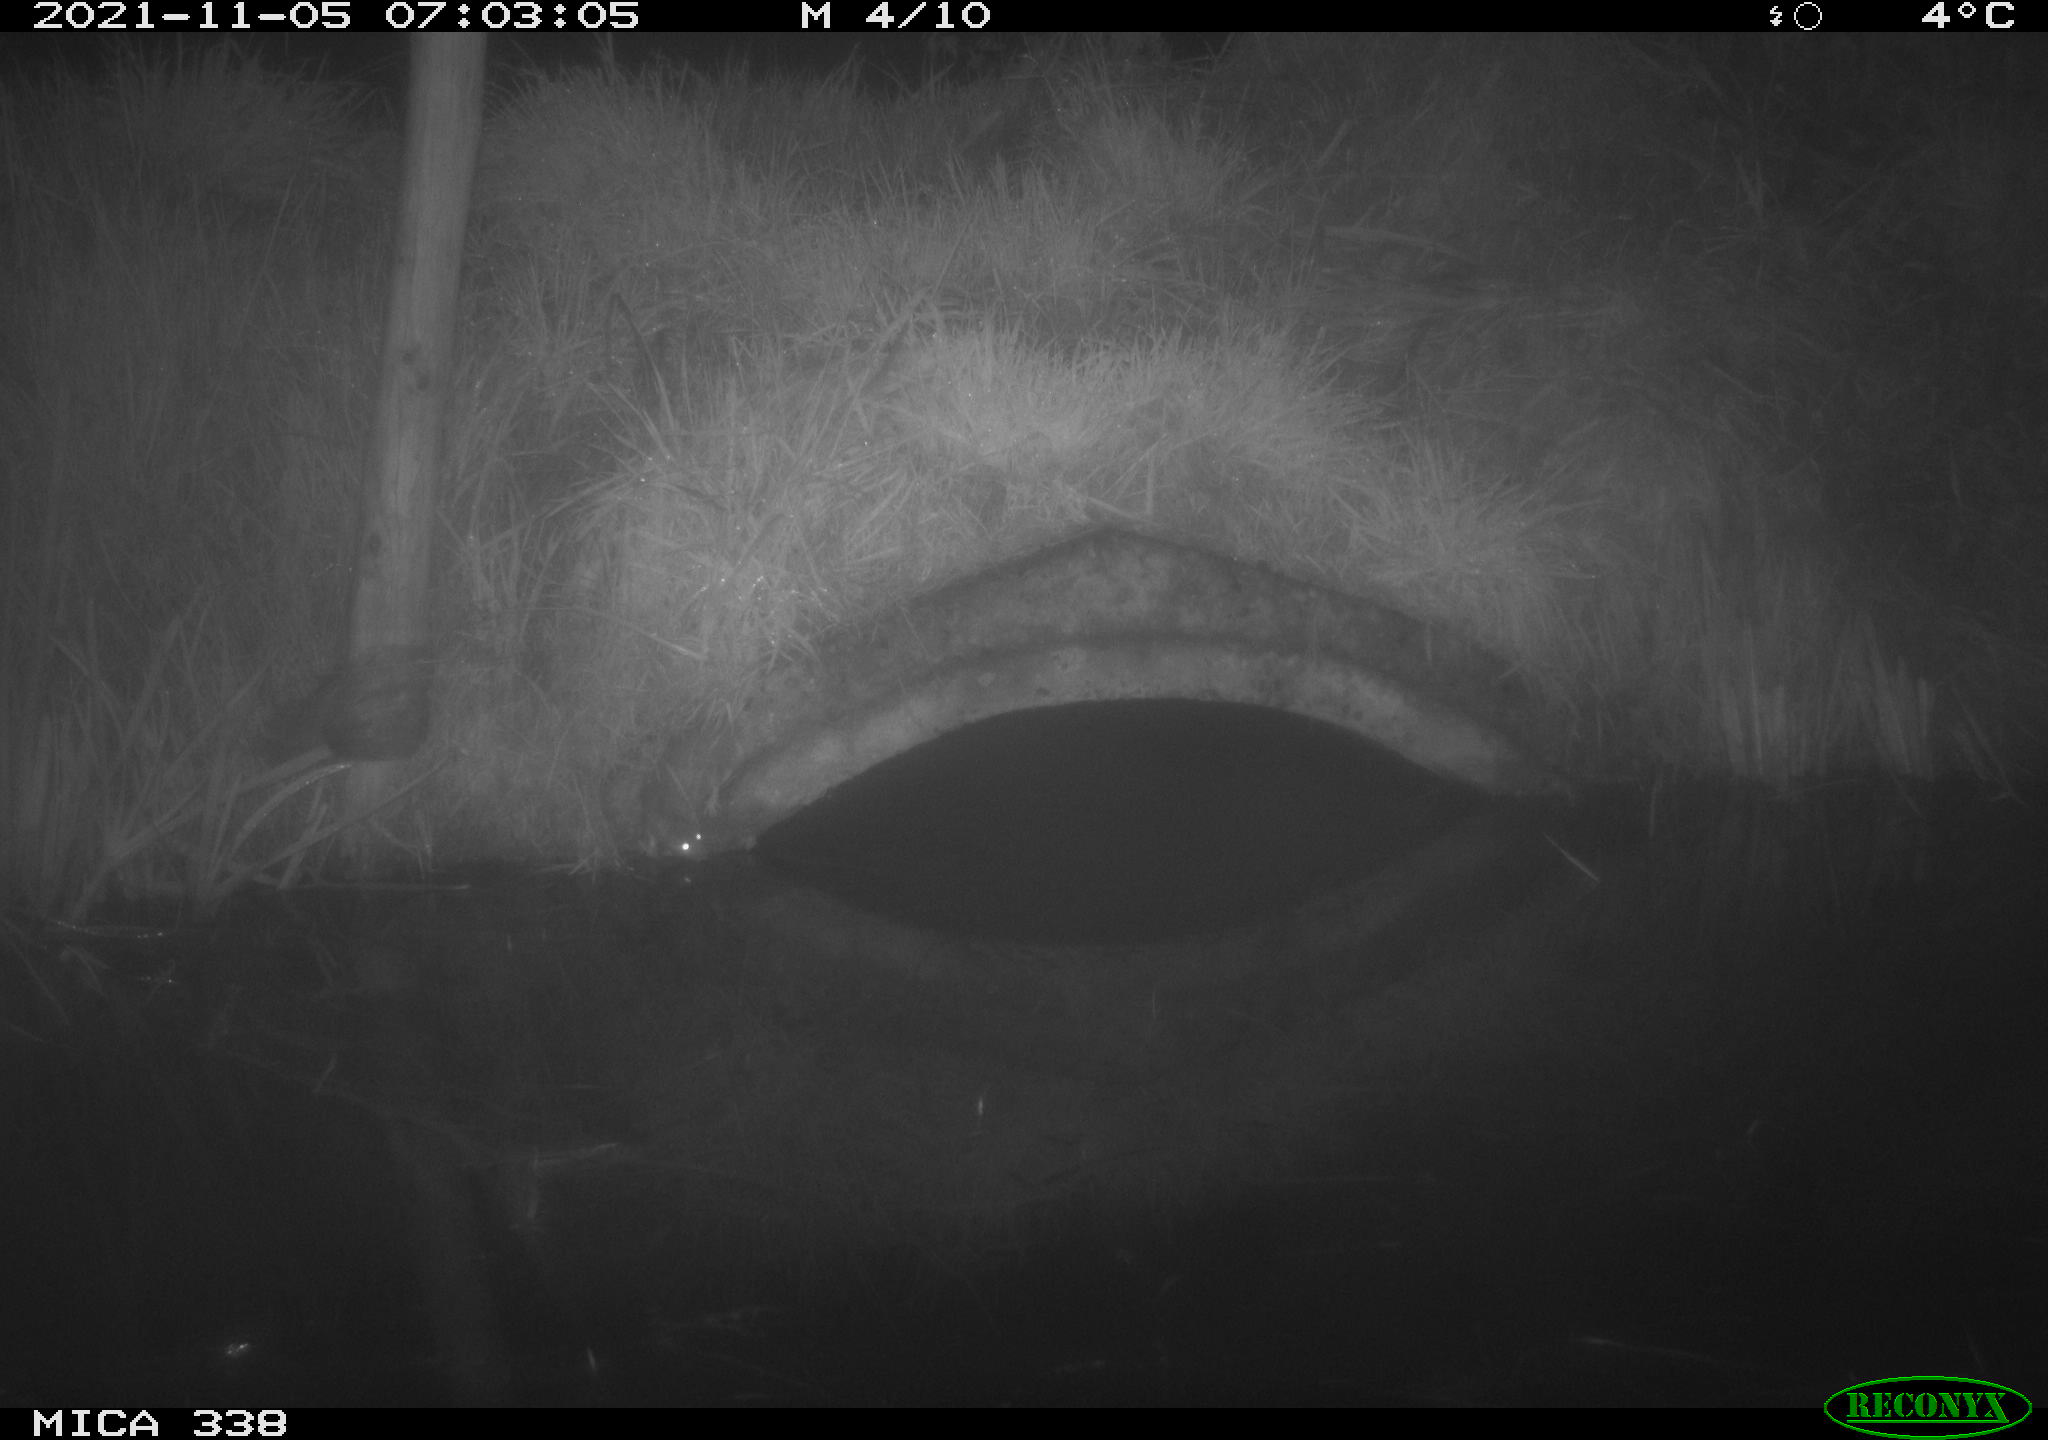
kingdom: Animalia
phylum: Chordata
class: Mammalia
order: Rodentia
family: Muridae
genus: Rattus
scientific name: Rattus norvegicus
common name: Brown rat
